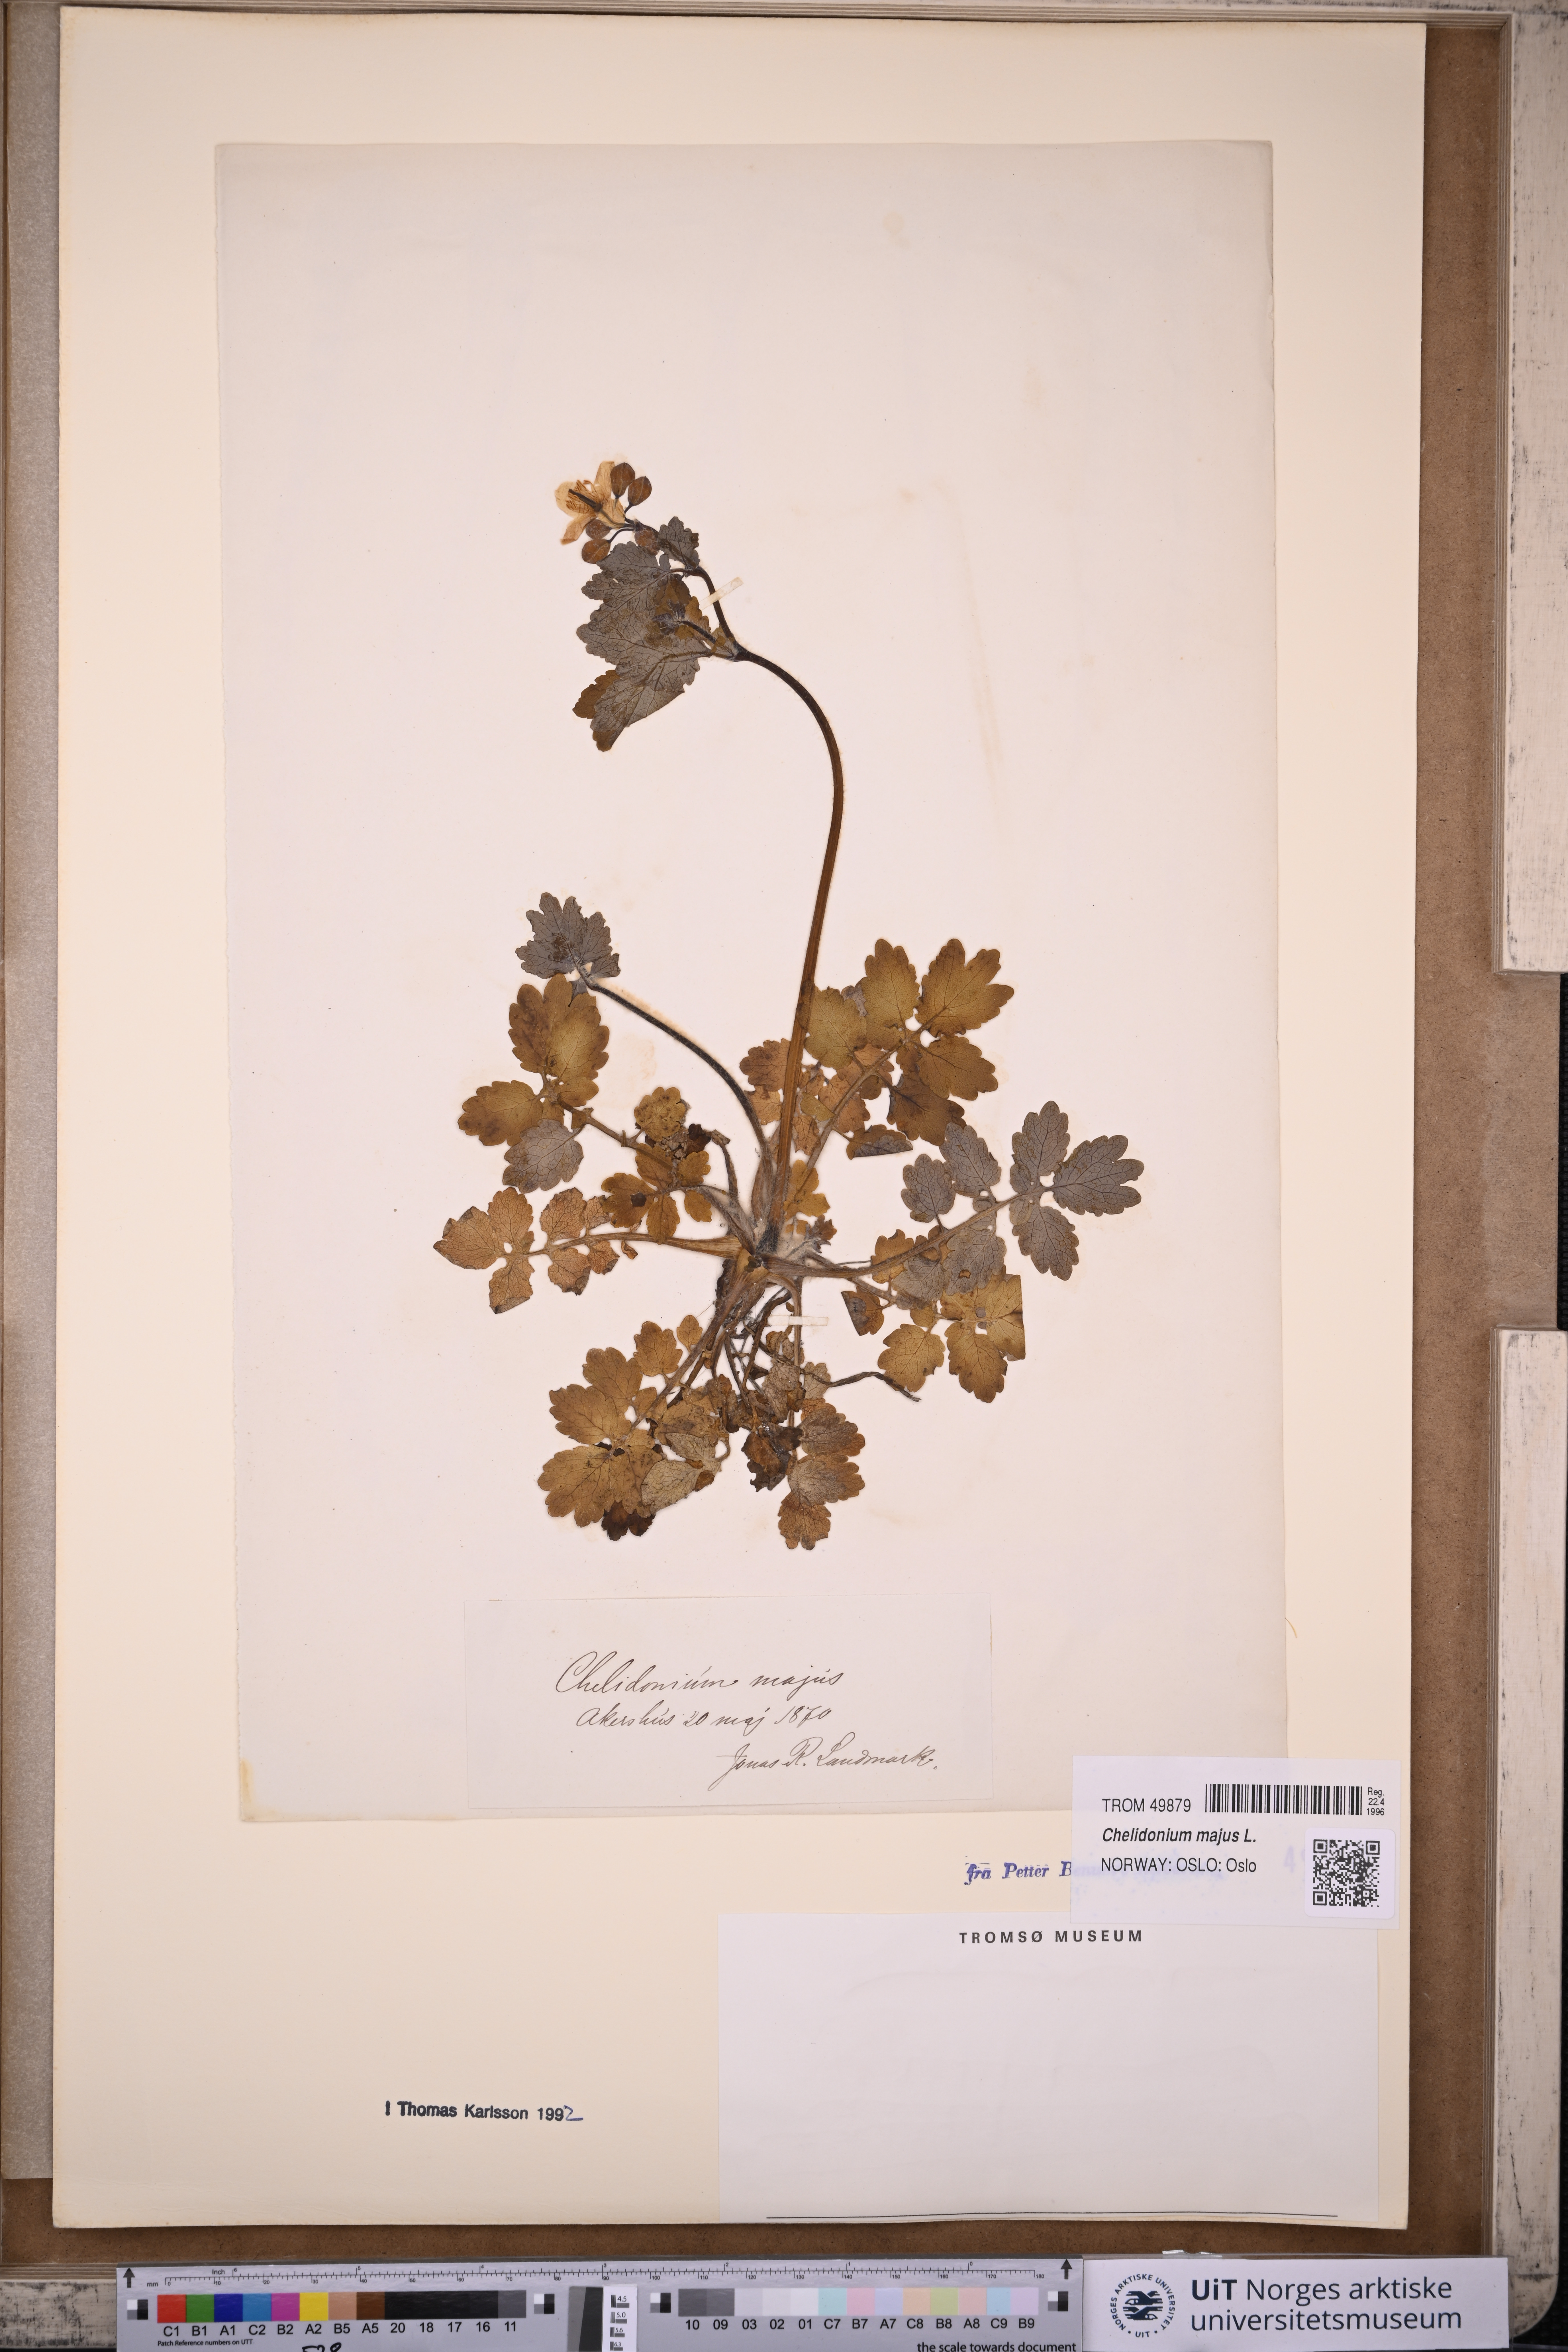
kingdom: Plantae
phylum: Tracheophyta
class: Magnoliopsida
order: Ranunculales
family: Papaveraceae
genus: Chelidonium
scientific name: Chelidonium majus
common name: Greater celandine
